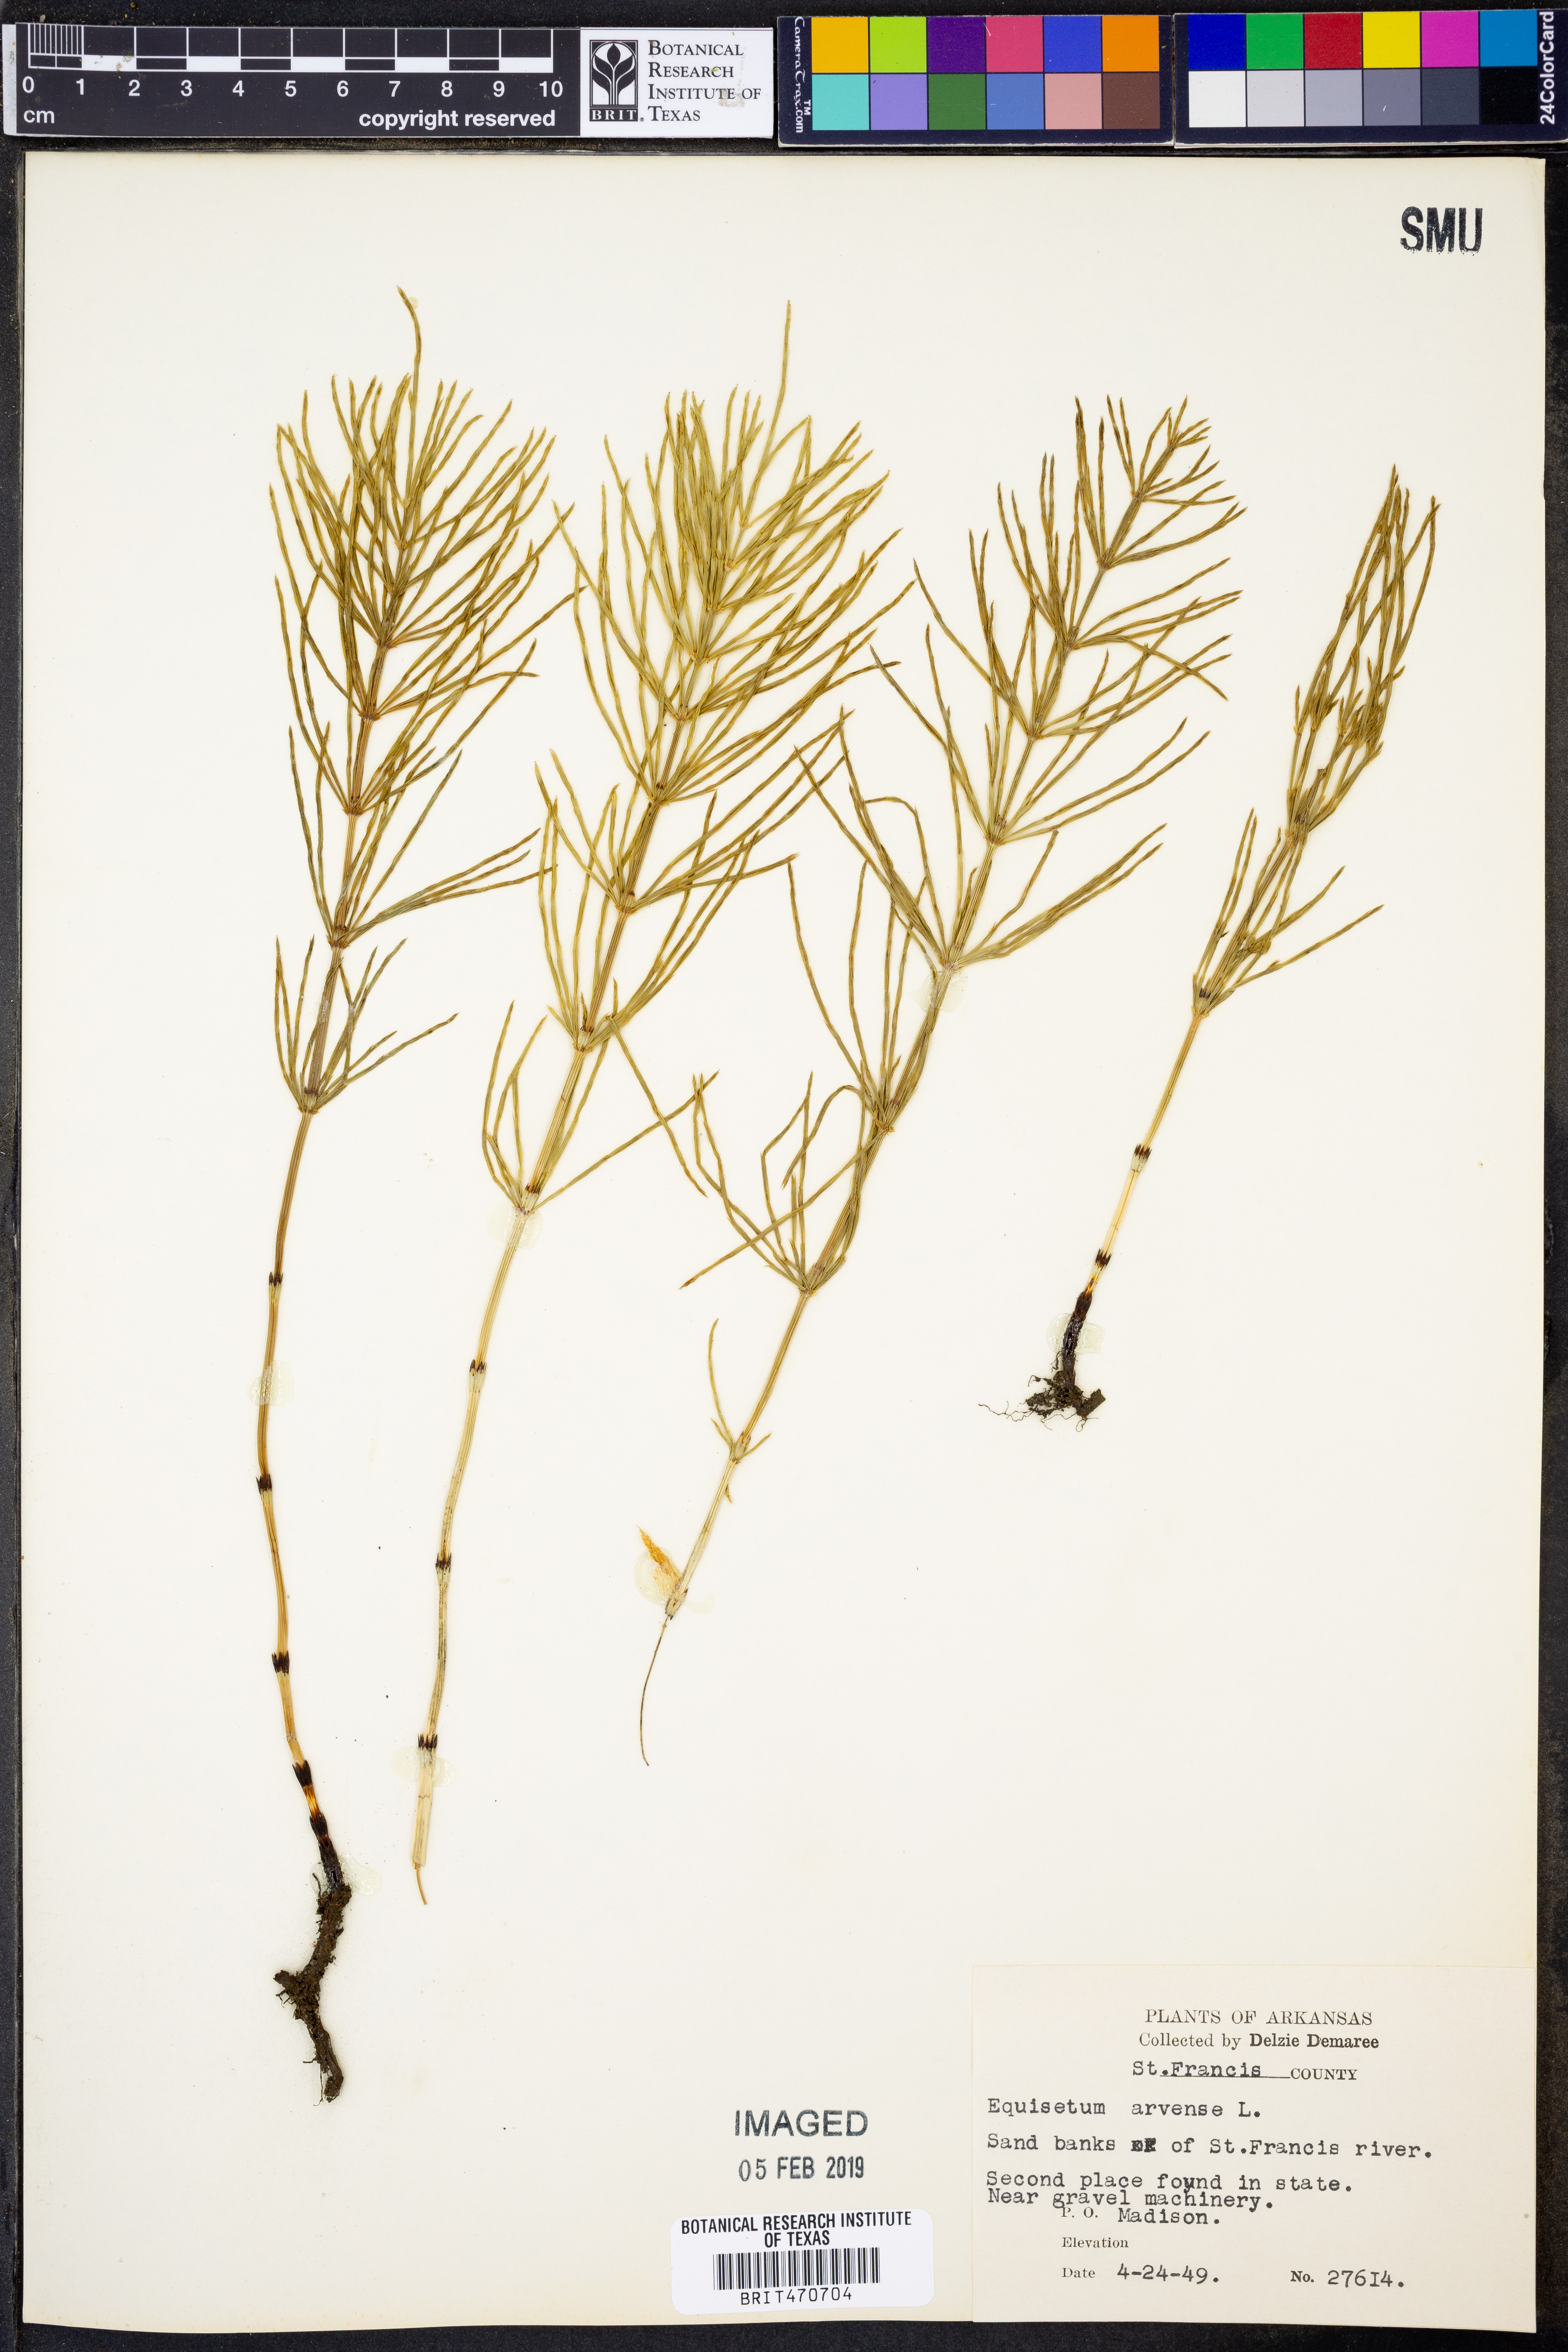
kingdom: Plantae
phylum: Tracheophyta
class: Polypodiopsida
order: Equisetales
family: Equisetaceae
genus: Equisetum
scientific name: Equisetum arvense
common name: Field horsetail
